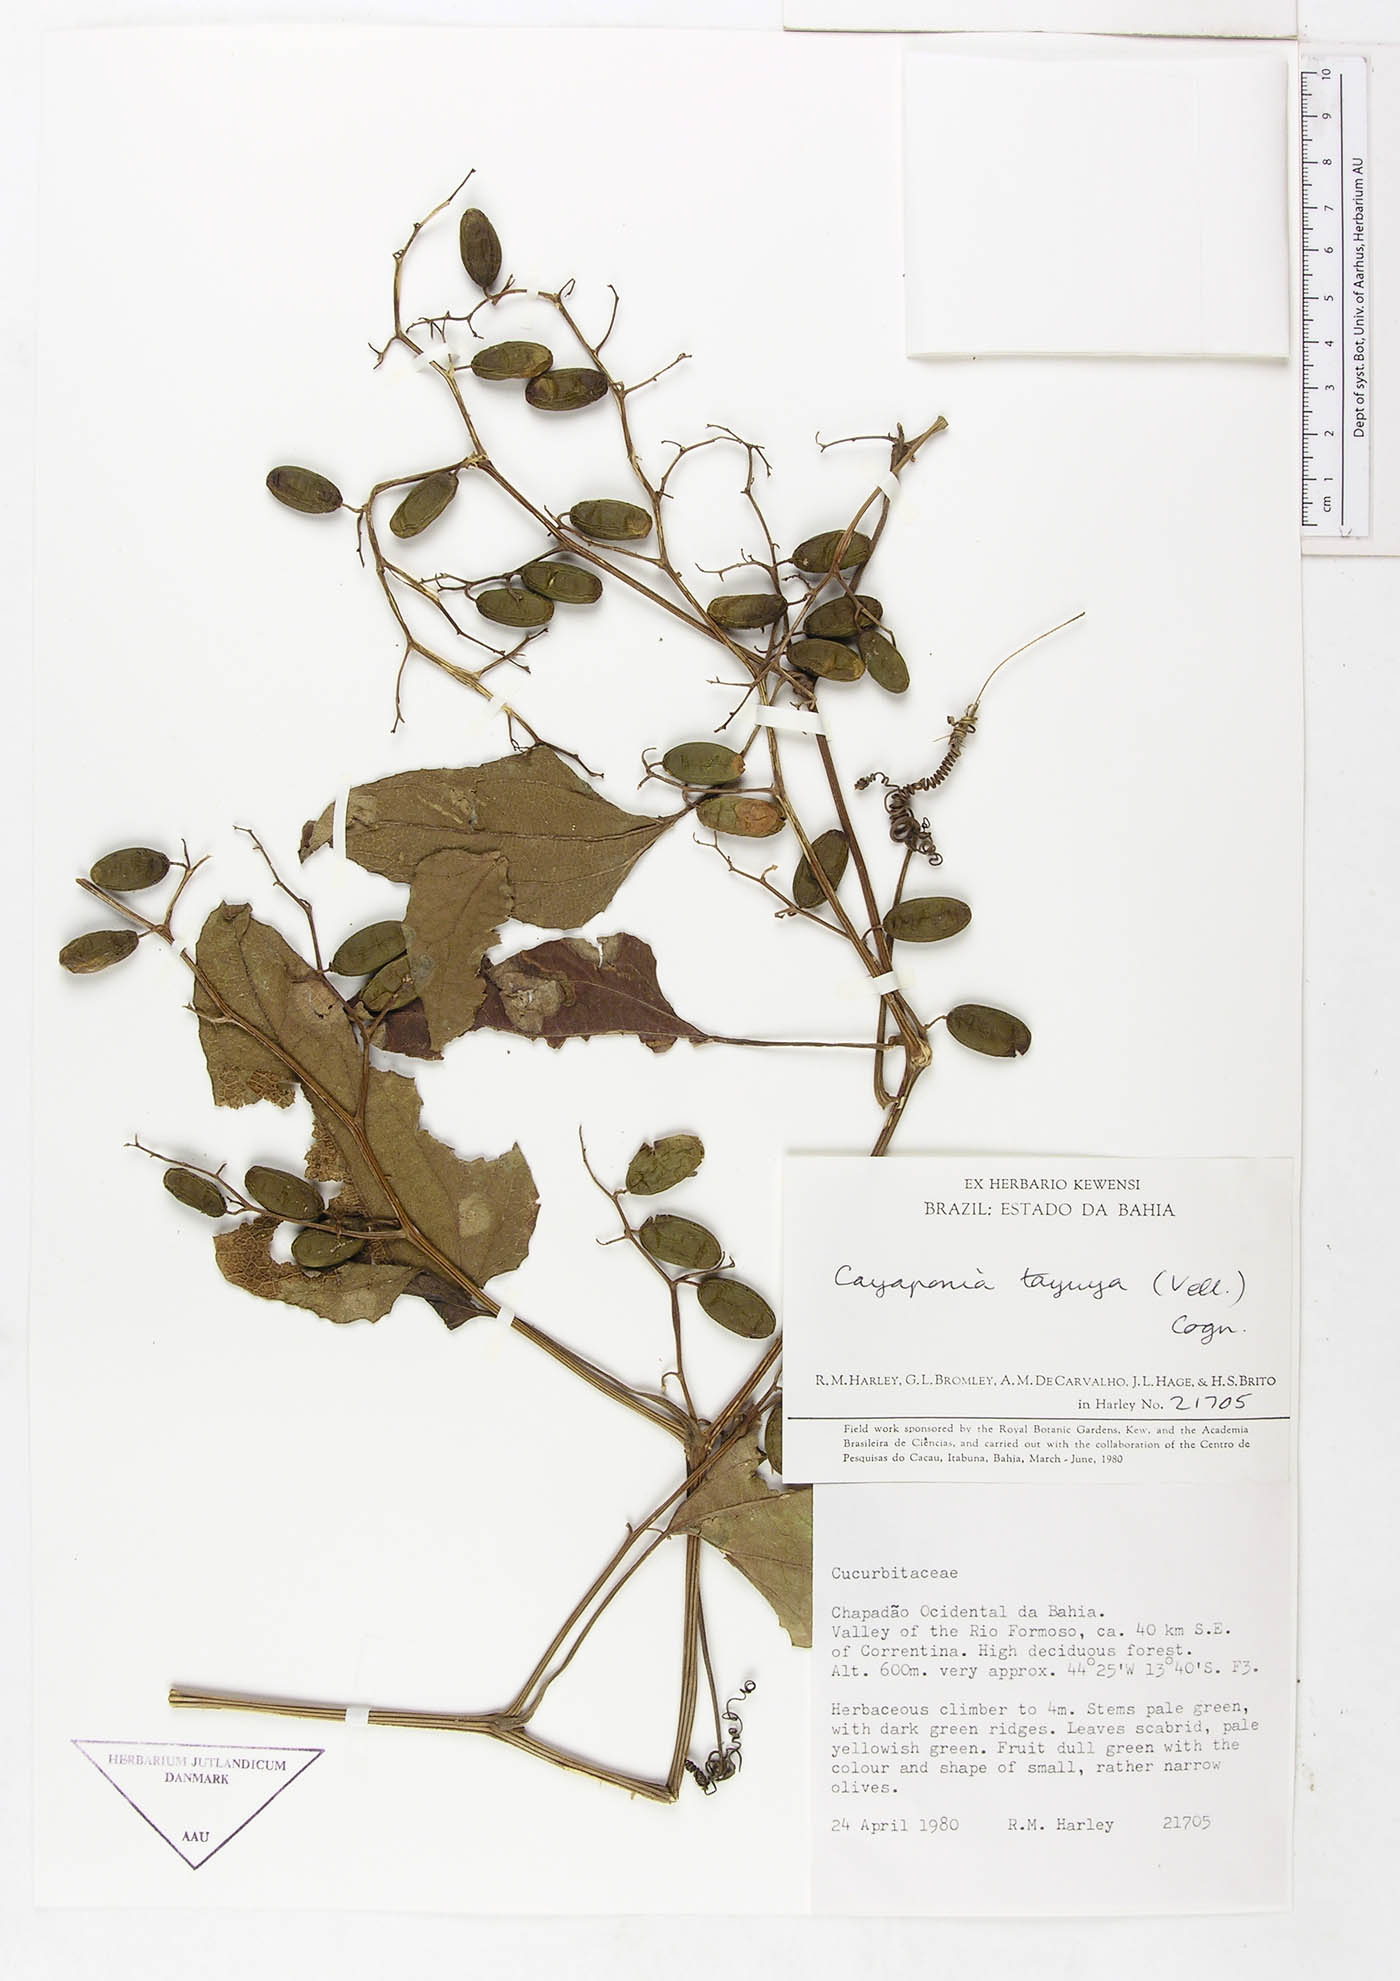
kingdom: Plantae
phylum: Tracheophyta
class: Magnoliopsida
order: Cucurbitales
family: Cucurbitaceae
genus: Cayaponia
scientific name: Cayaponia tayuya
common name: Tayuya
